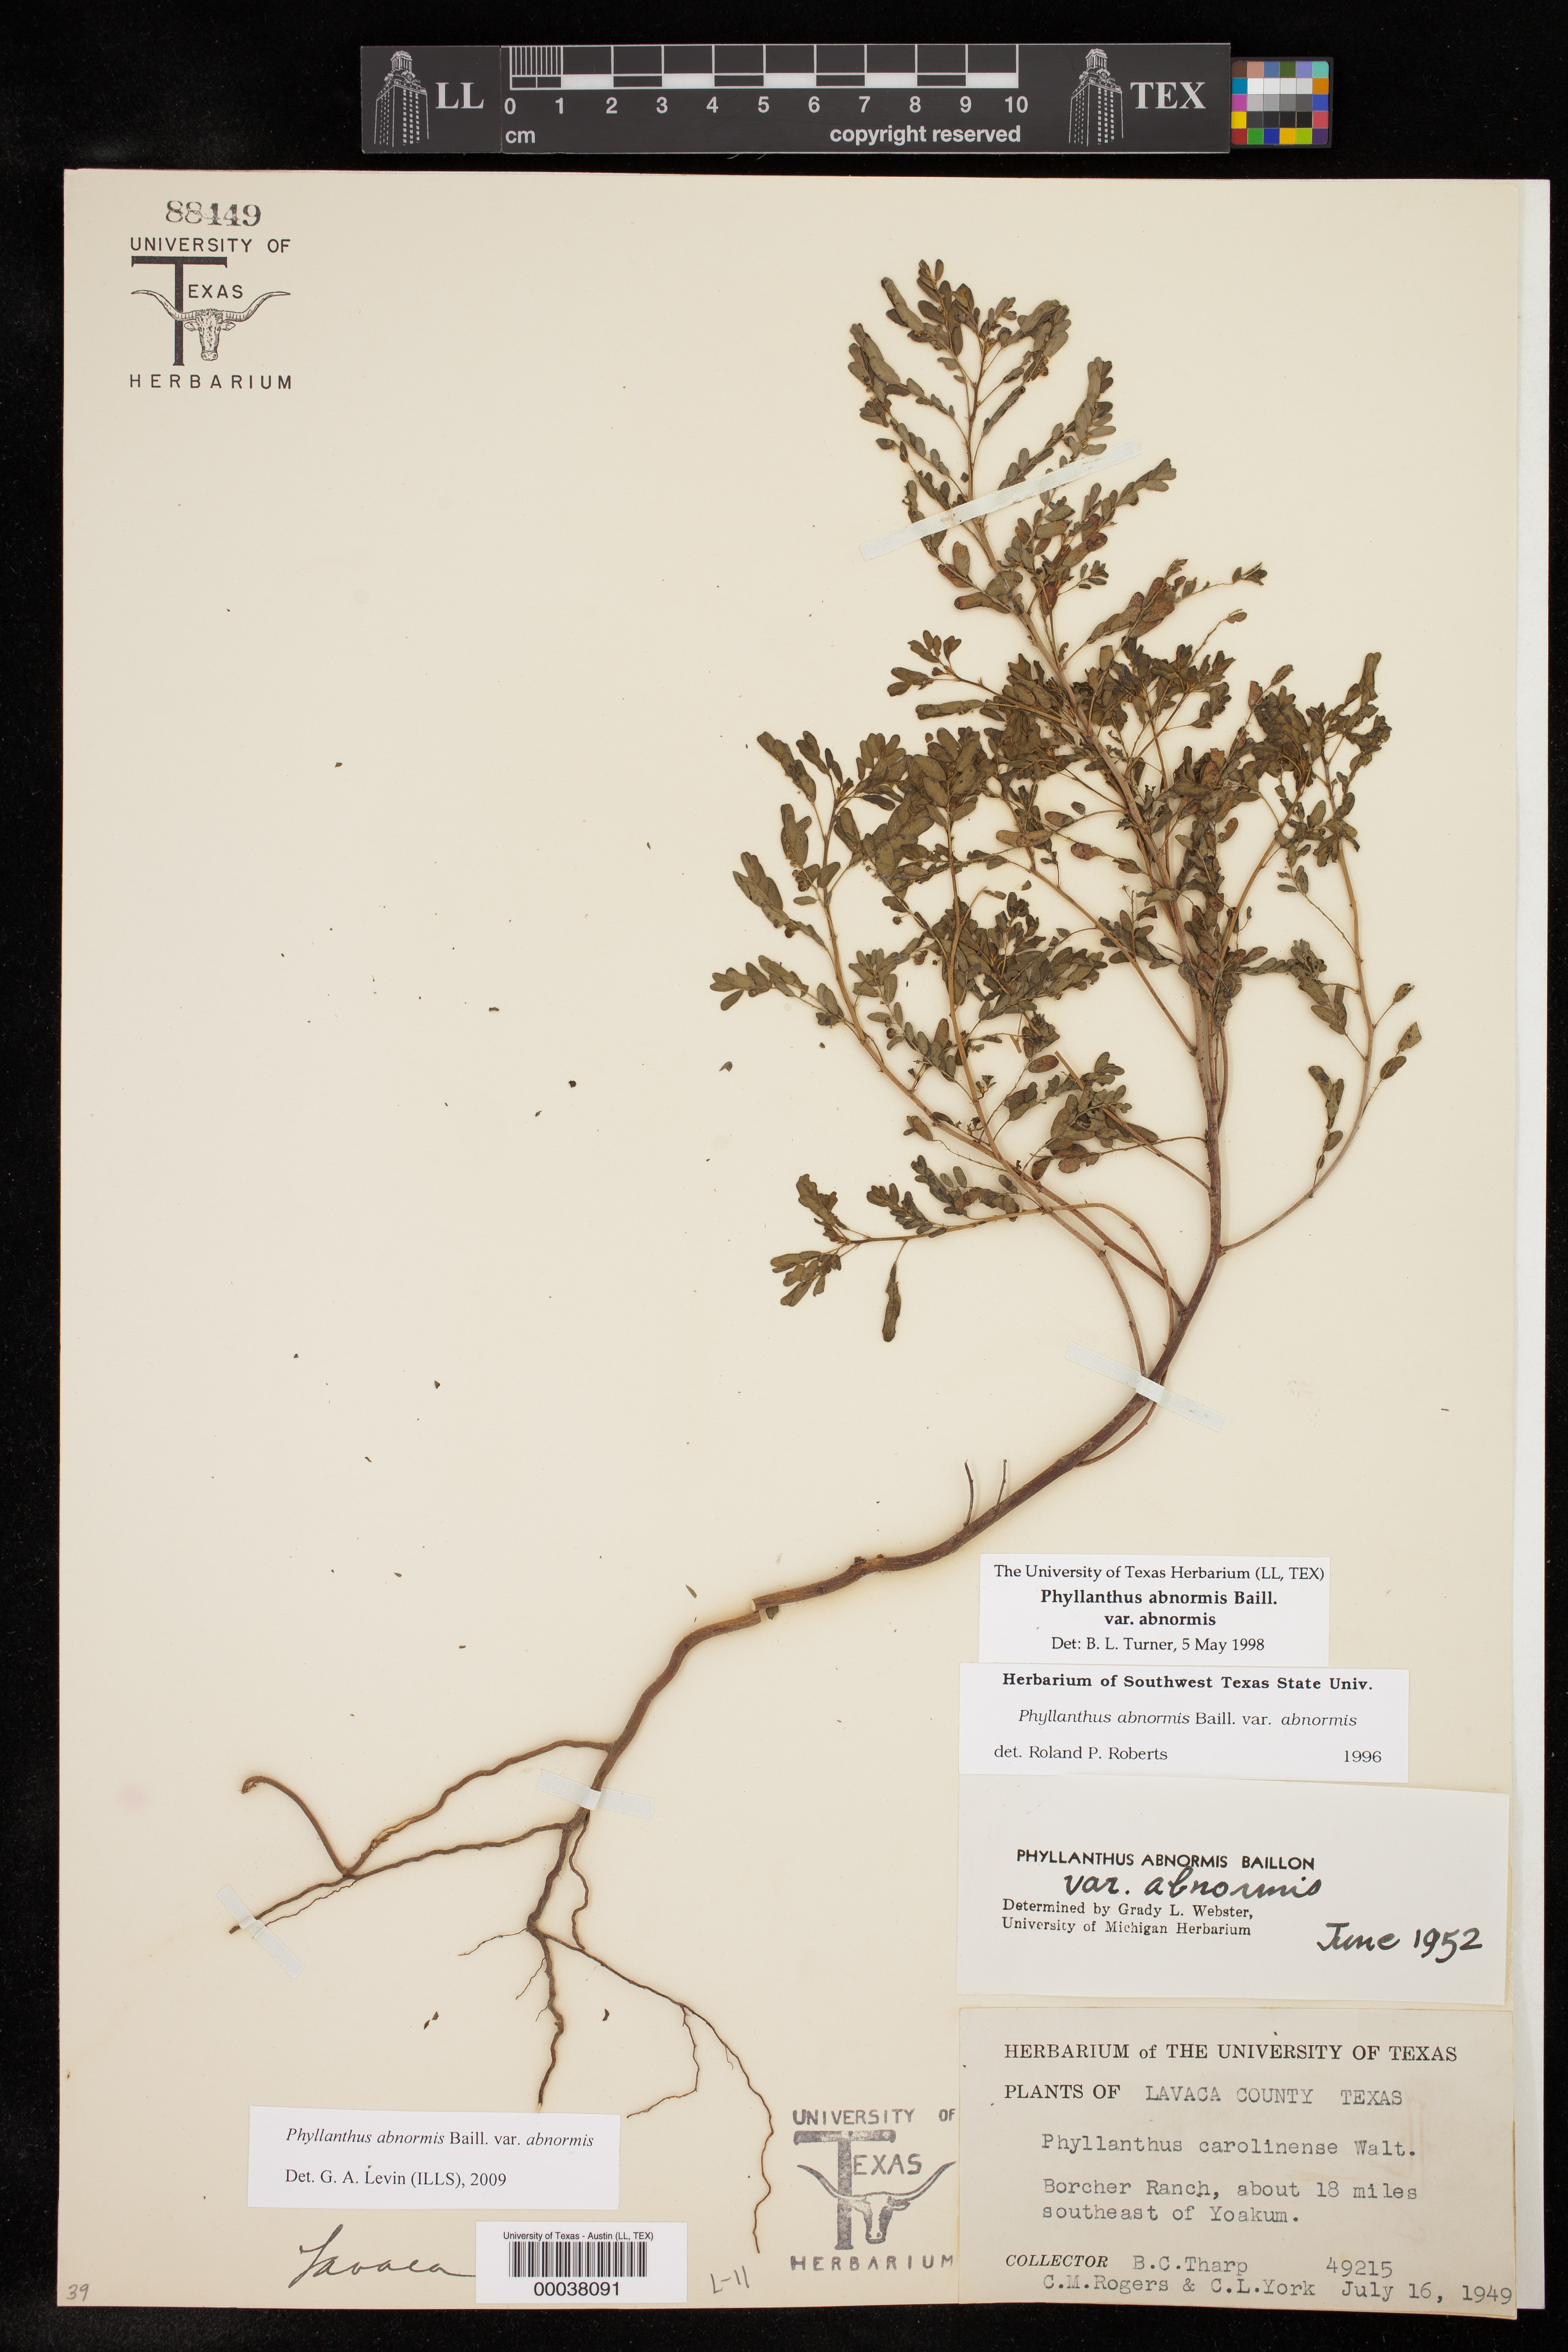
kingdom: Plantae
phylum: Tracheophyta
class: Magnoliopsida
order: Malpighiales
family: Phyllanthaceae
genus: Phyllanthus
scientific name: Phyllanthus abnormis
